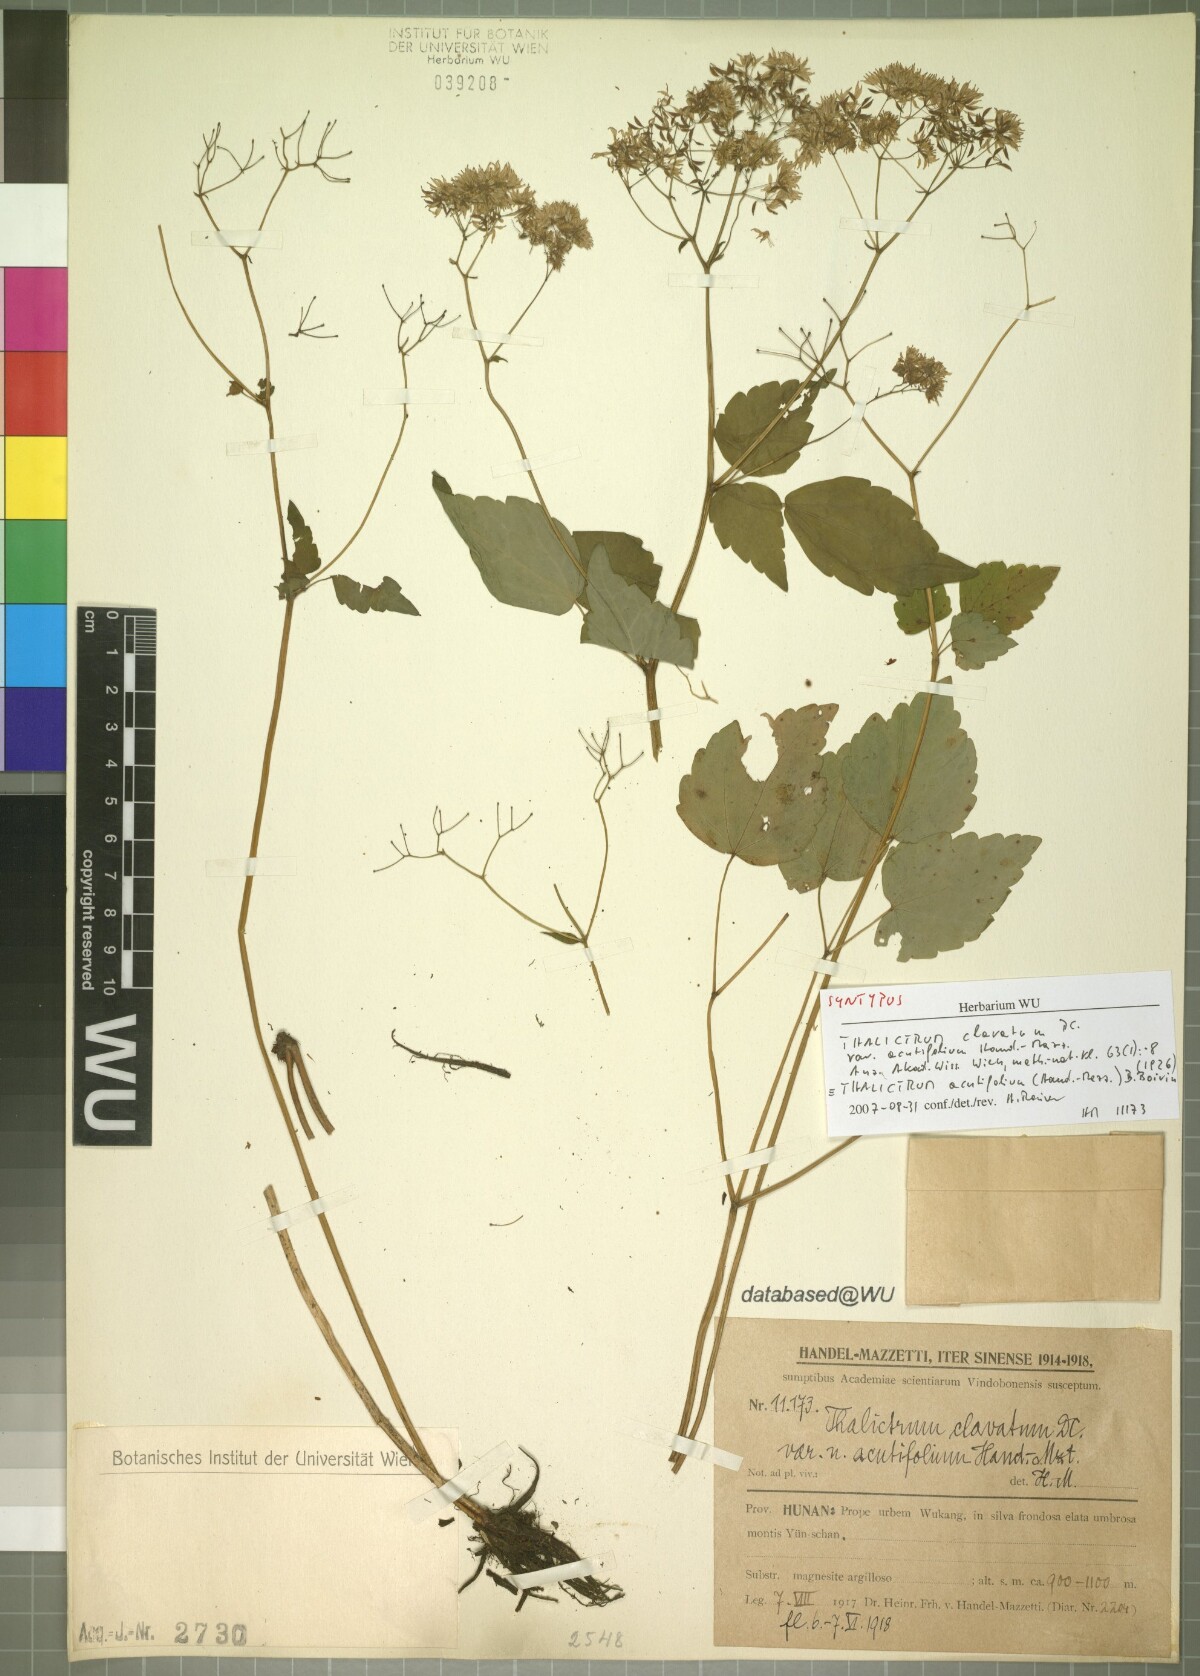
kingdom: Plantae
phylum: Tracheophyta
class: Magnoliopsida
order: Ranunculales
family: Ranunculaceae
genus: Thalictrum
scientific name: Thalictrum acutifolium
